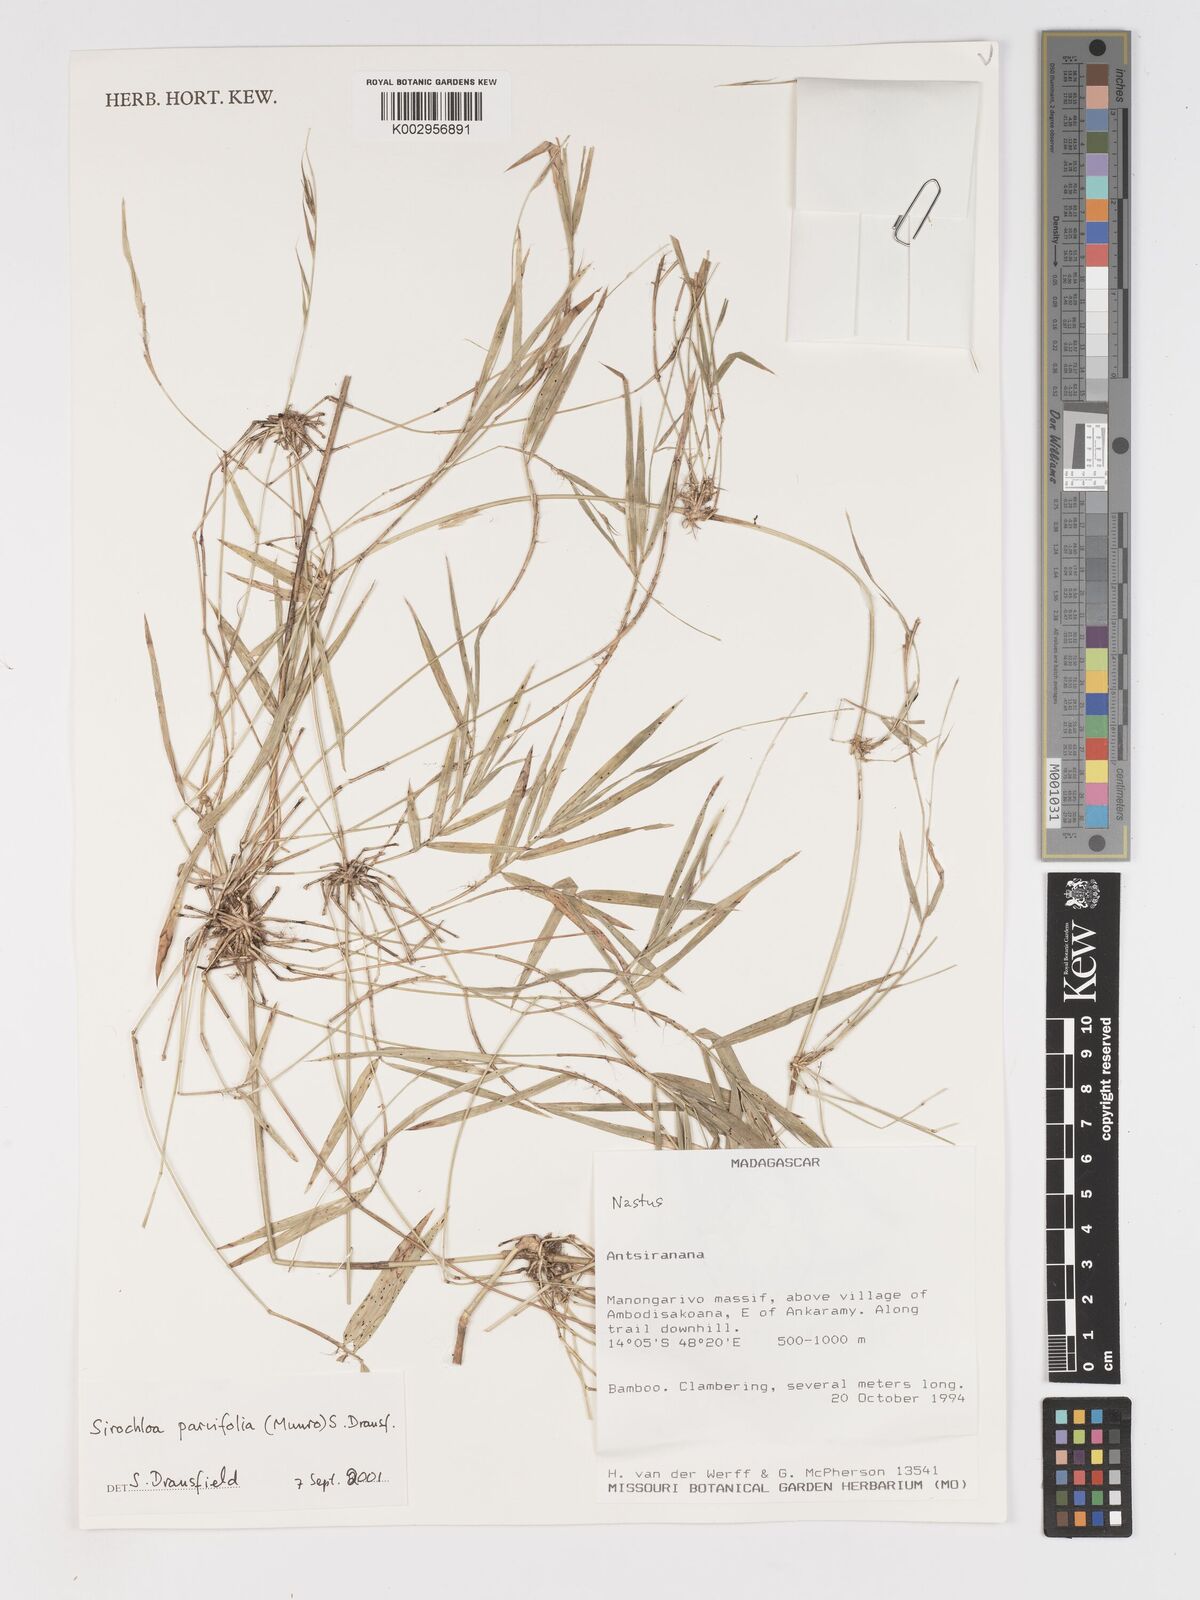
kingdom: Plantae
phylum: Tracheophyta
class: Liliopsida
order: Poales
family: Poaceae
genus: Sirochloa
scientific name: Sirochloa parvifolia
